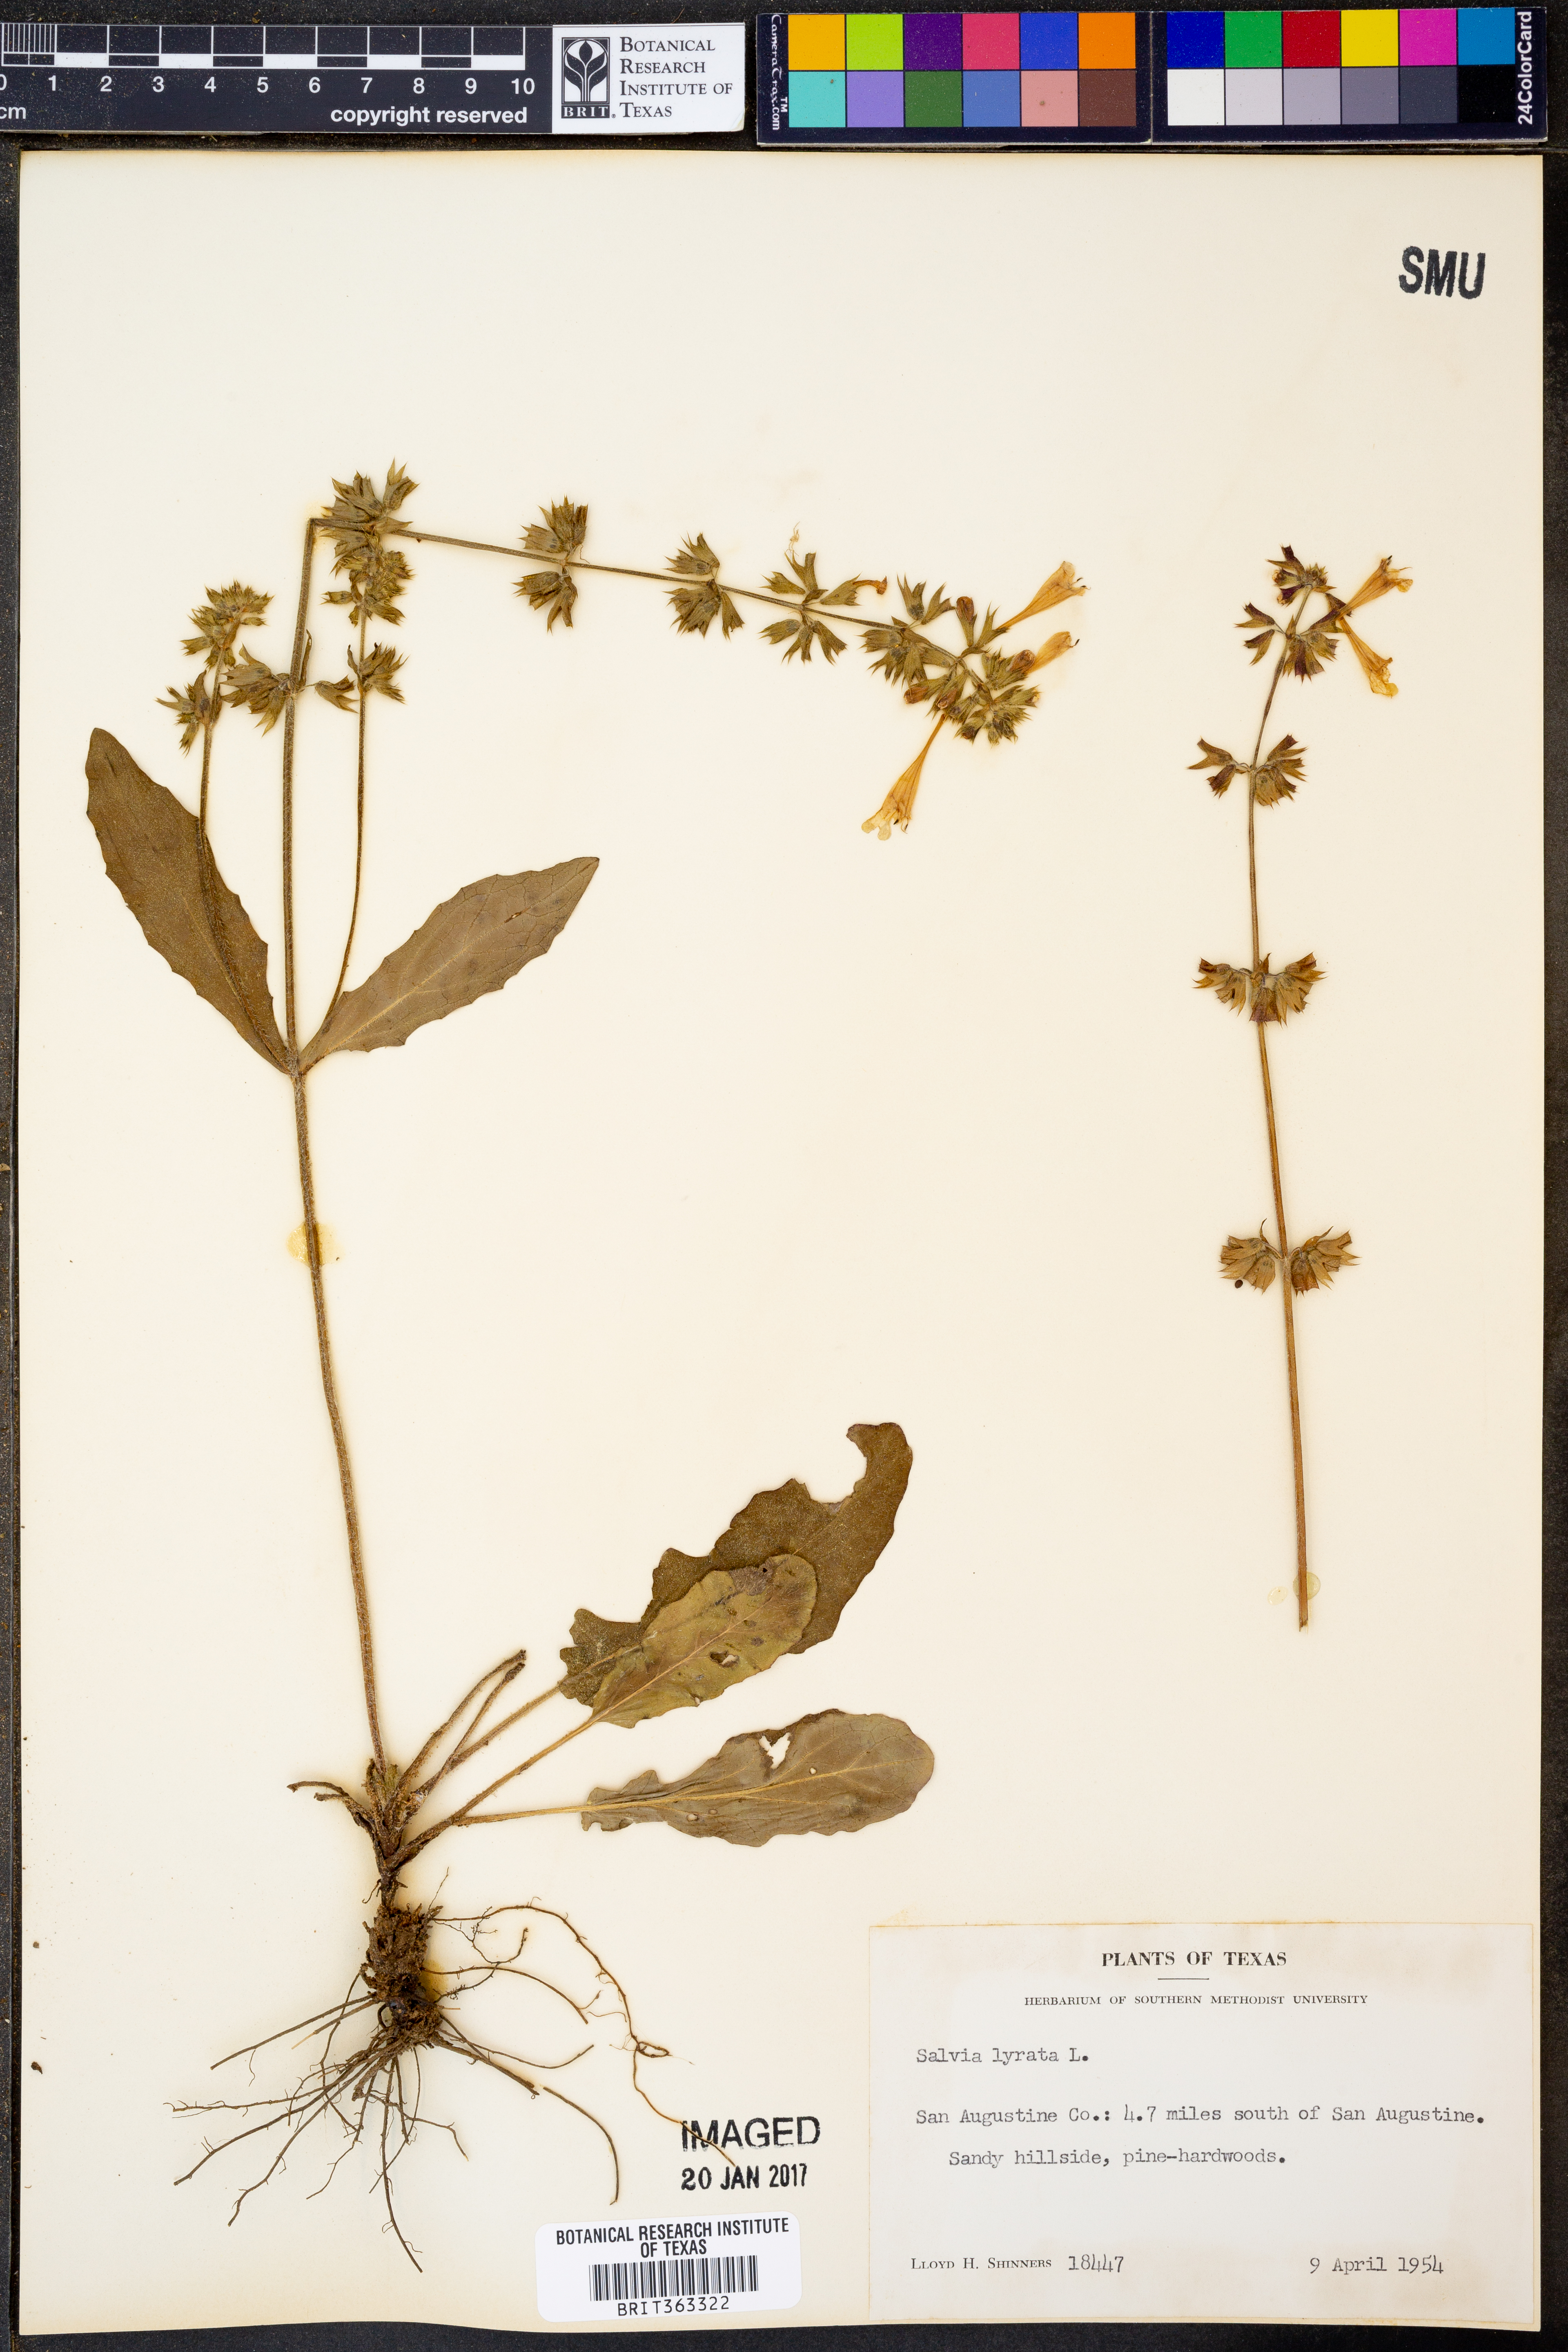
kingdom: Plantae
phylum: Tracheophyta
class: Magnoliopsida
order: Lamiales
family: Lamiaceae
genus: Salvia
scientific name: Salvia lyrata
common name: Cancerweed
